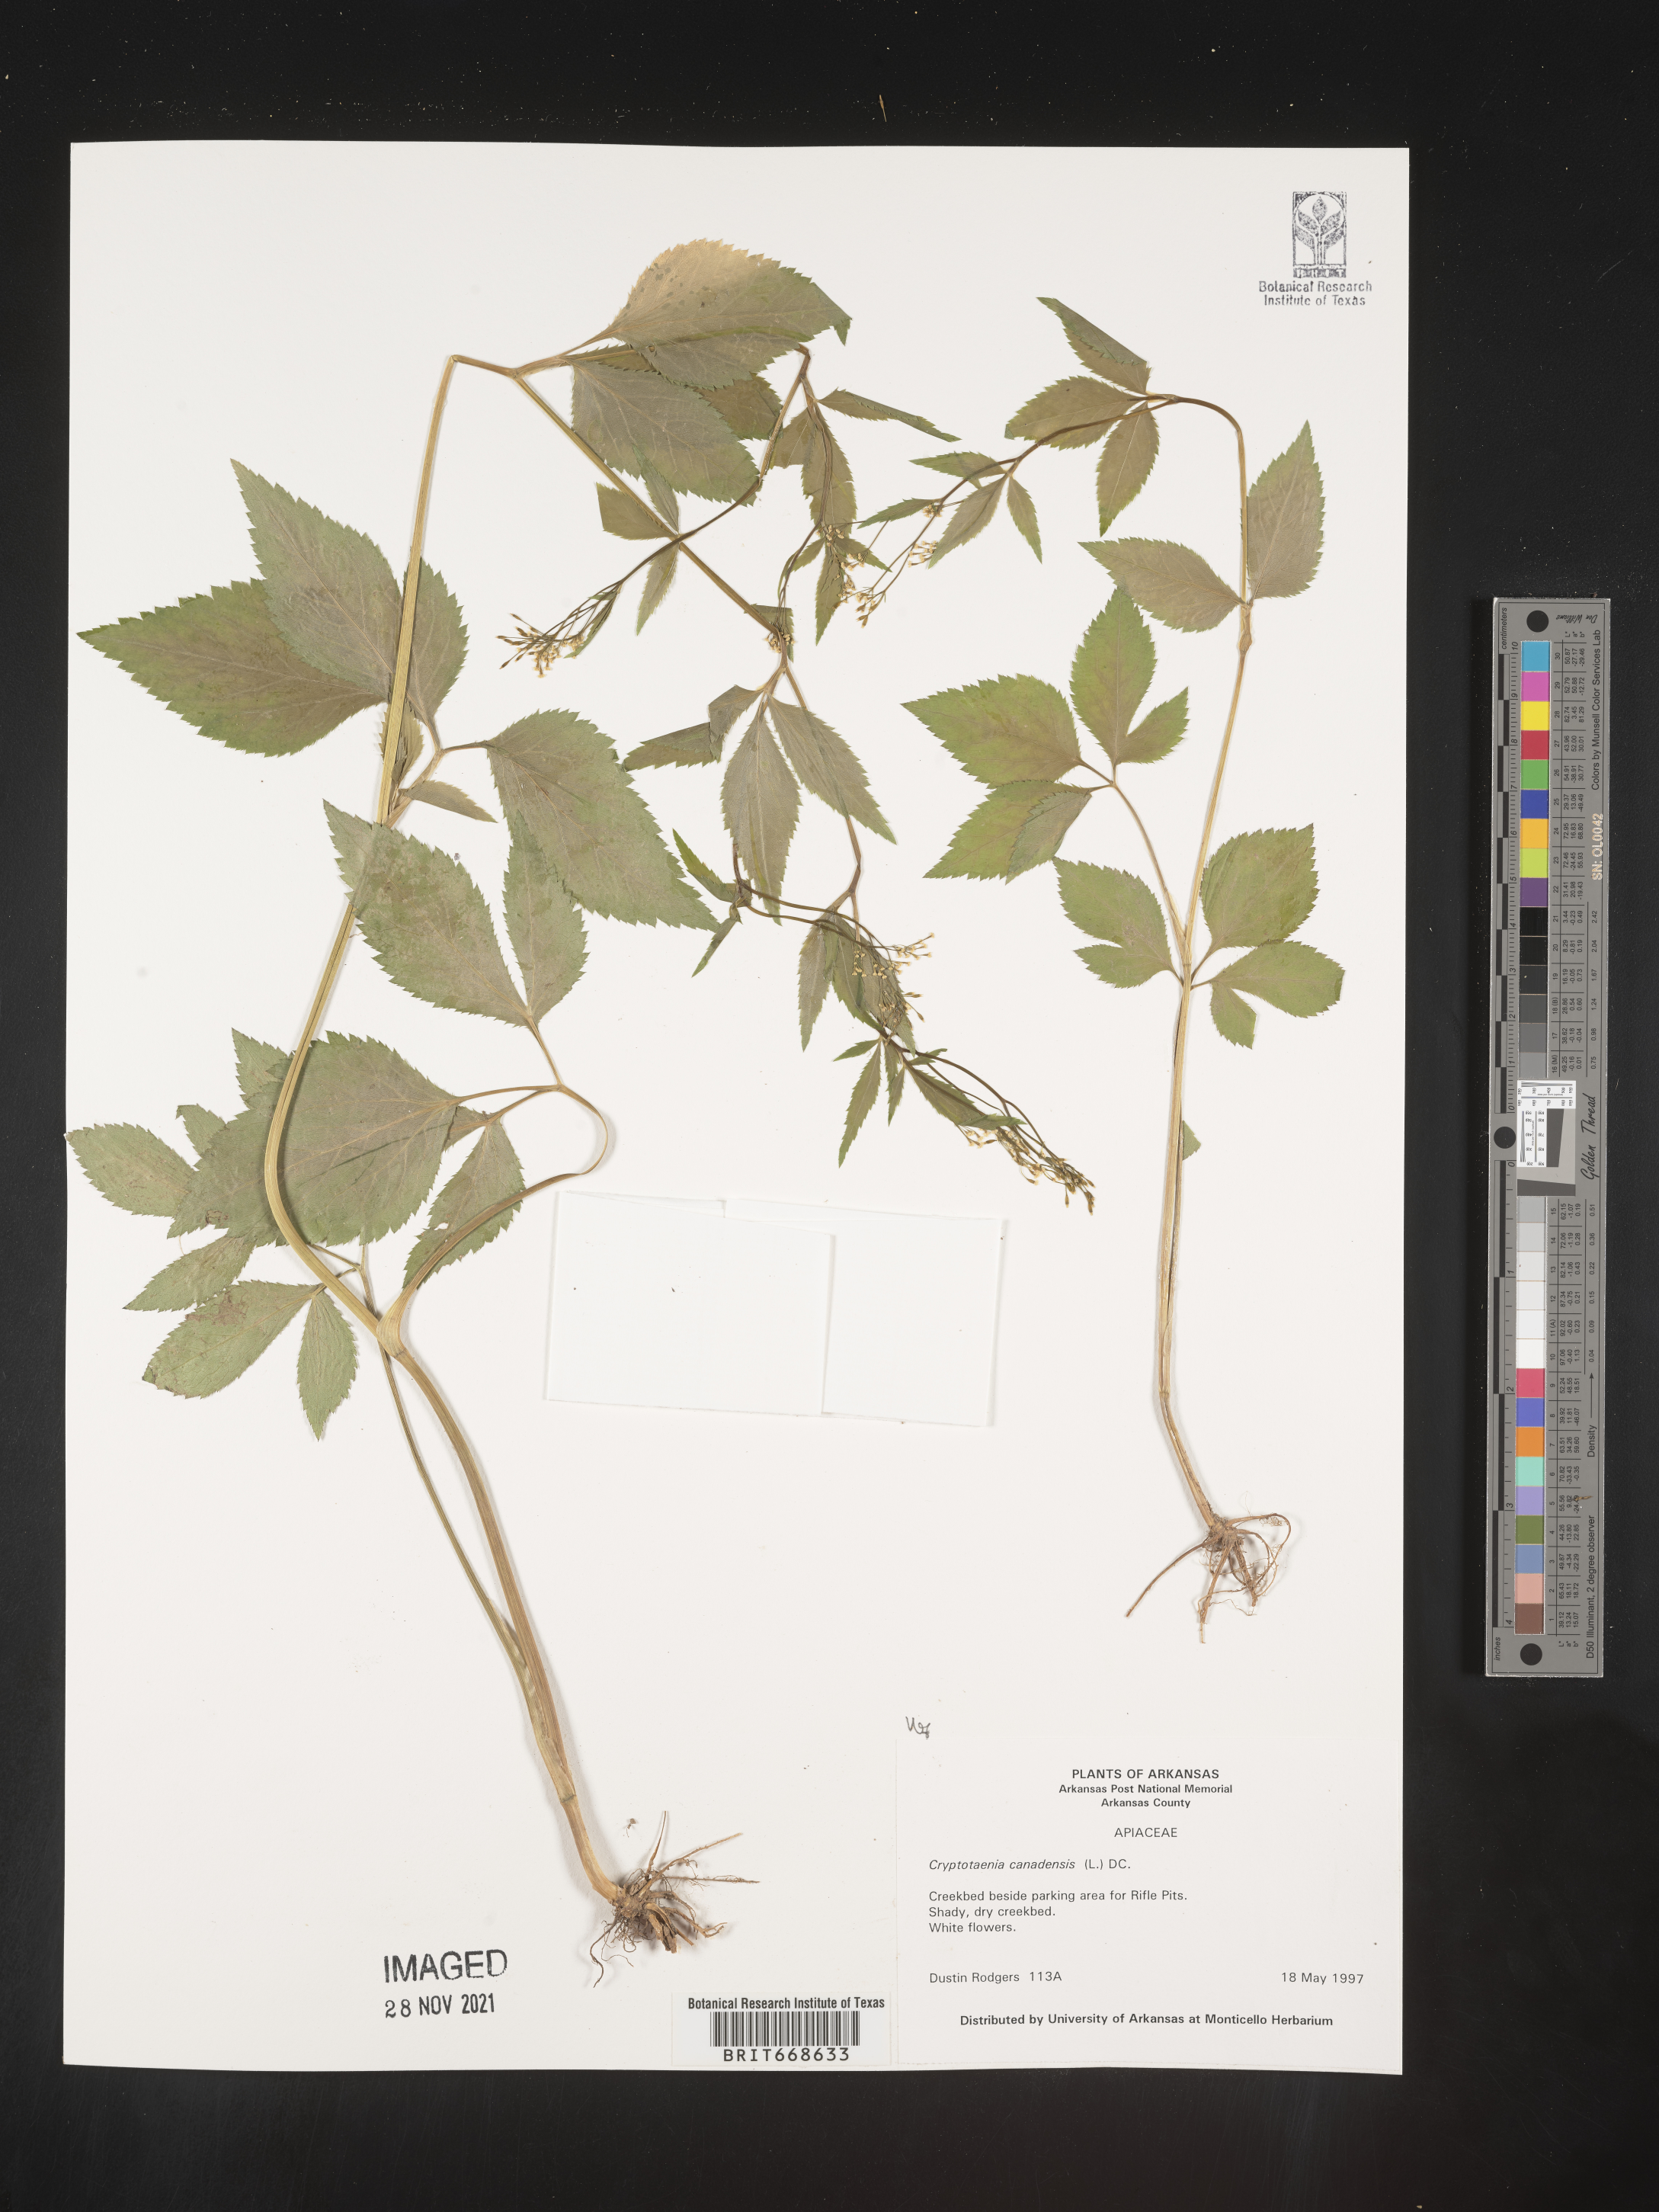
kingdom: Plantae
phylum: Tracheophyta
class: Magnoliopsida
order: Apiales
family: Apiaceae
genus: Cryptotaenia
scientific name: Cryptotaenia canadensis
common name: Honewort
